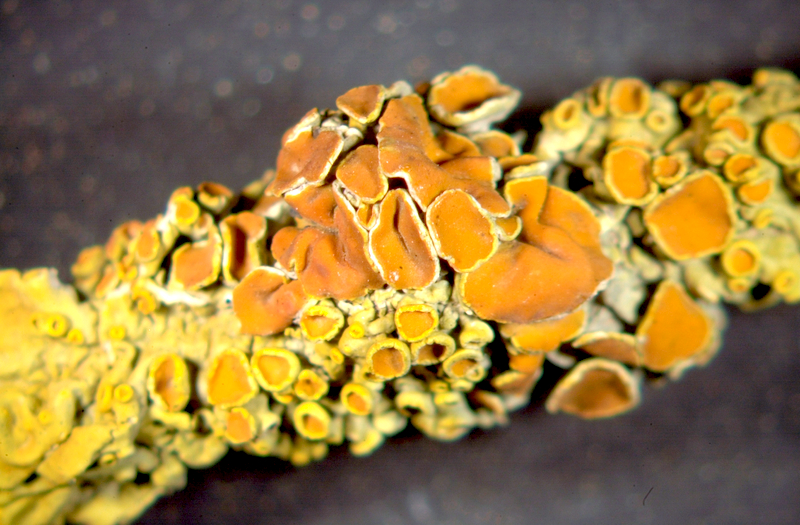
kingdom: Fungi
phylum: Ascomycota
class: Lecanoromycetes
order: Teloschistales
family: Teloschistaceae
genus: Xanthoria
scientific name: Xanthoria parietina
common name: Common orange lichen
